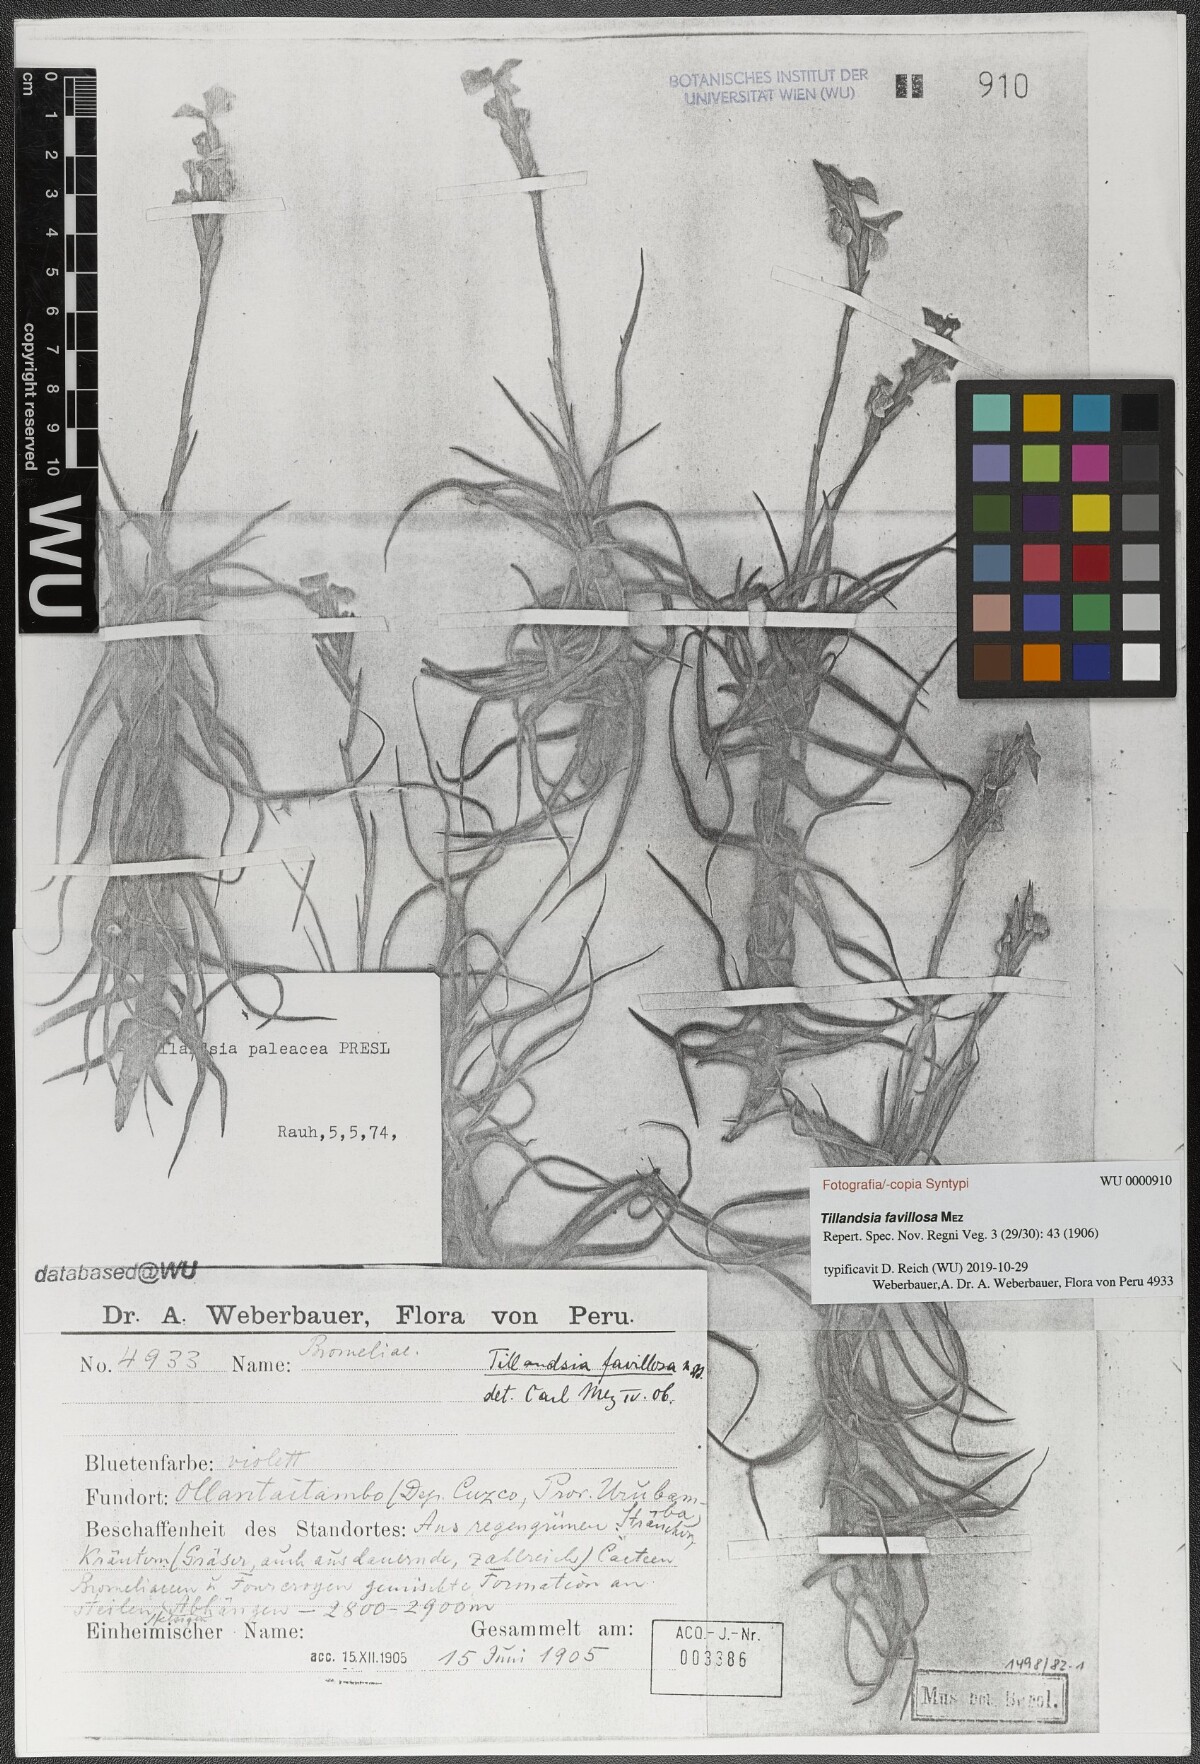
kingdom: Plantae
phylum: Tracheophyta
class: Liliopsida
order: Poales
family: Bromeliaceae
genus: Tillandsia
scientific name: Tillandsia paleacea
